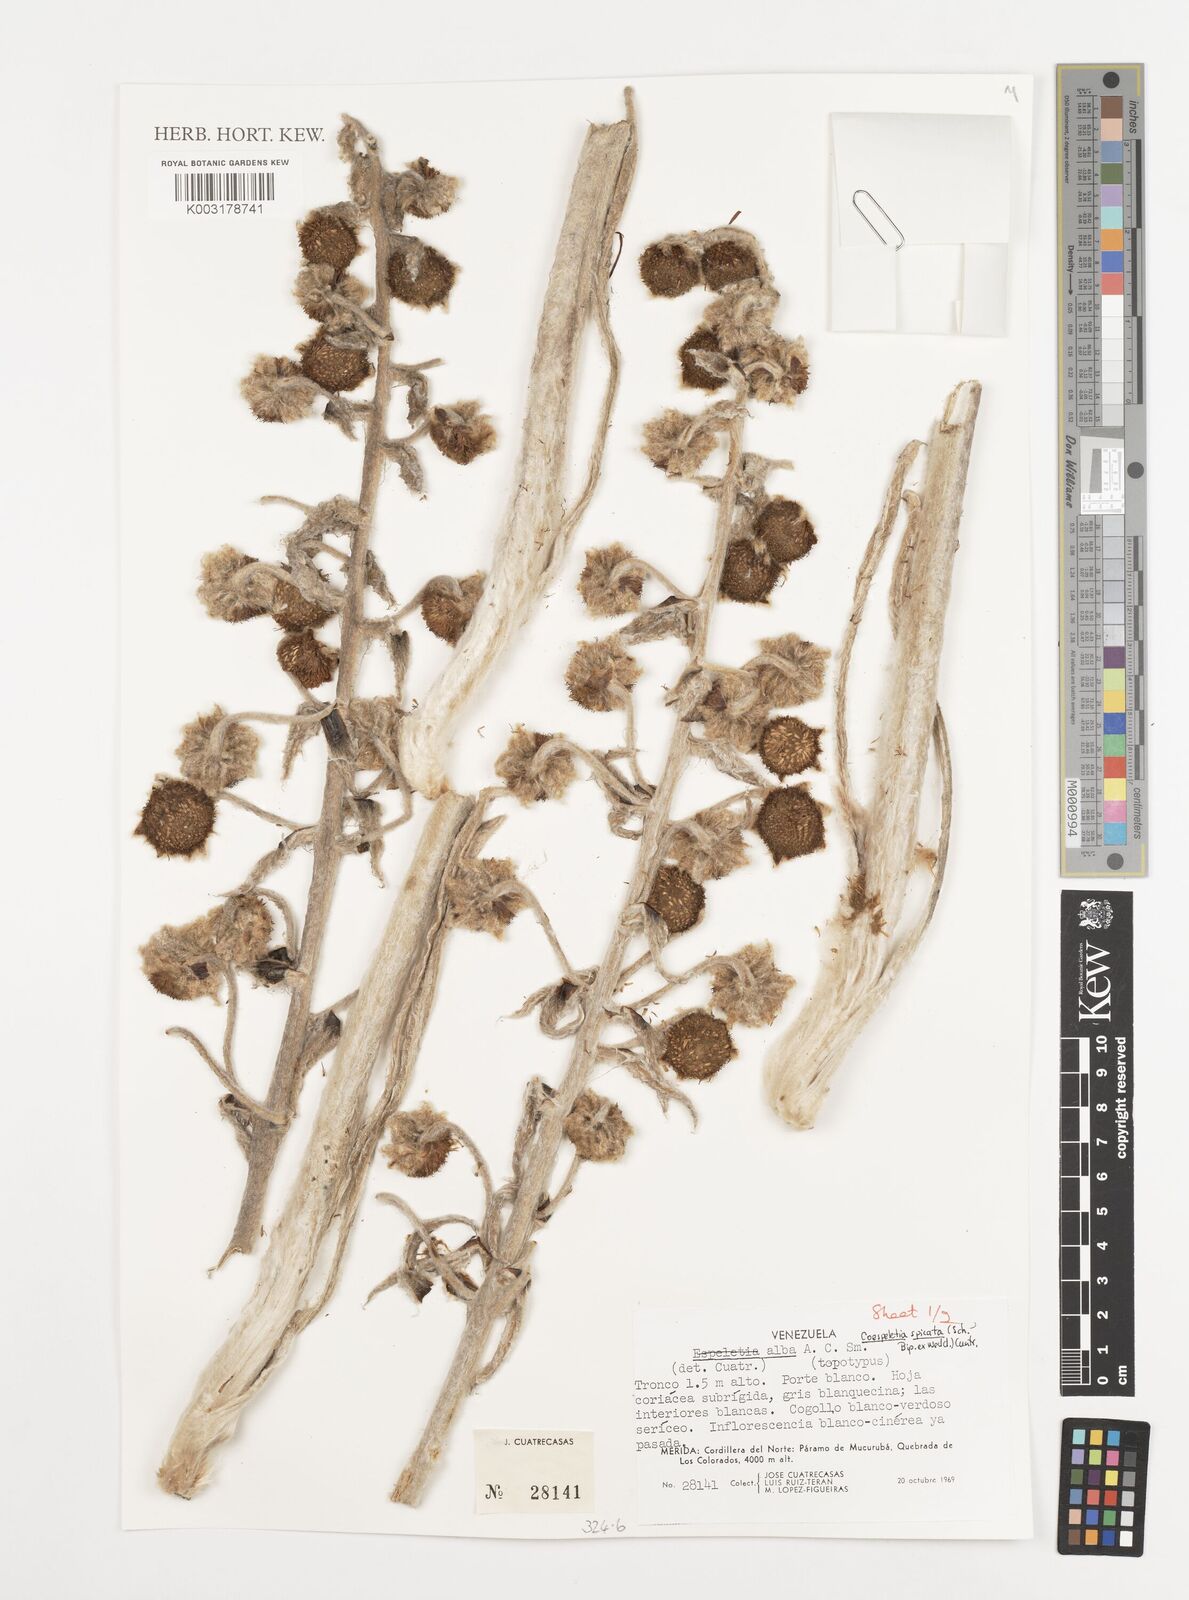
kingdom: Plantae
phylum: Tracheophyta
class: Magnoliopsida
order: Asterales
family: Asteraceae
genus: Espeletia
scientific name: Espeletia spicata
